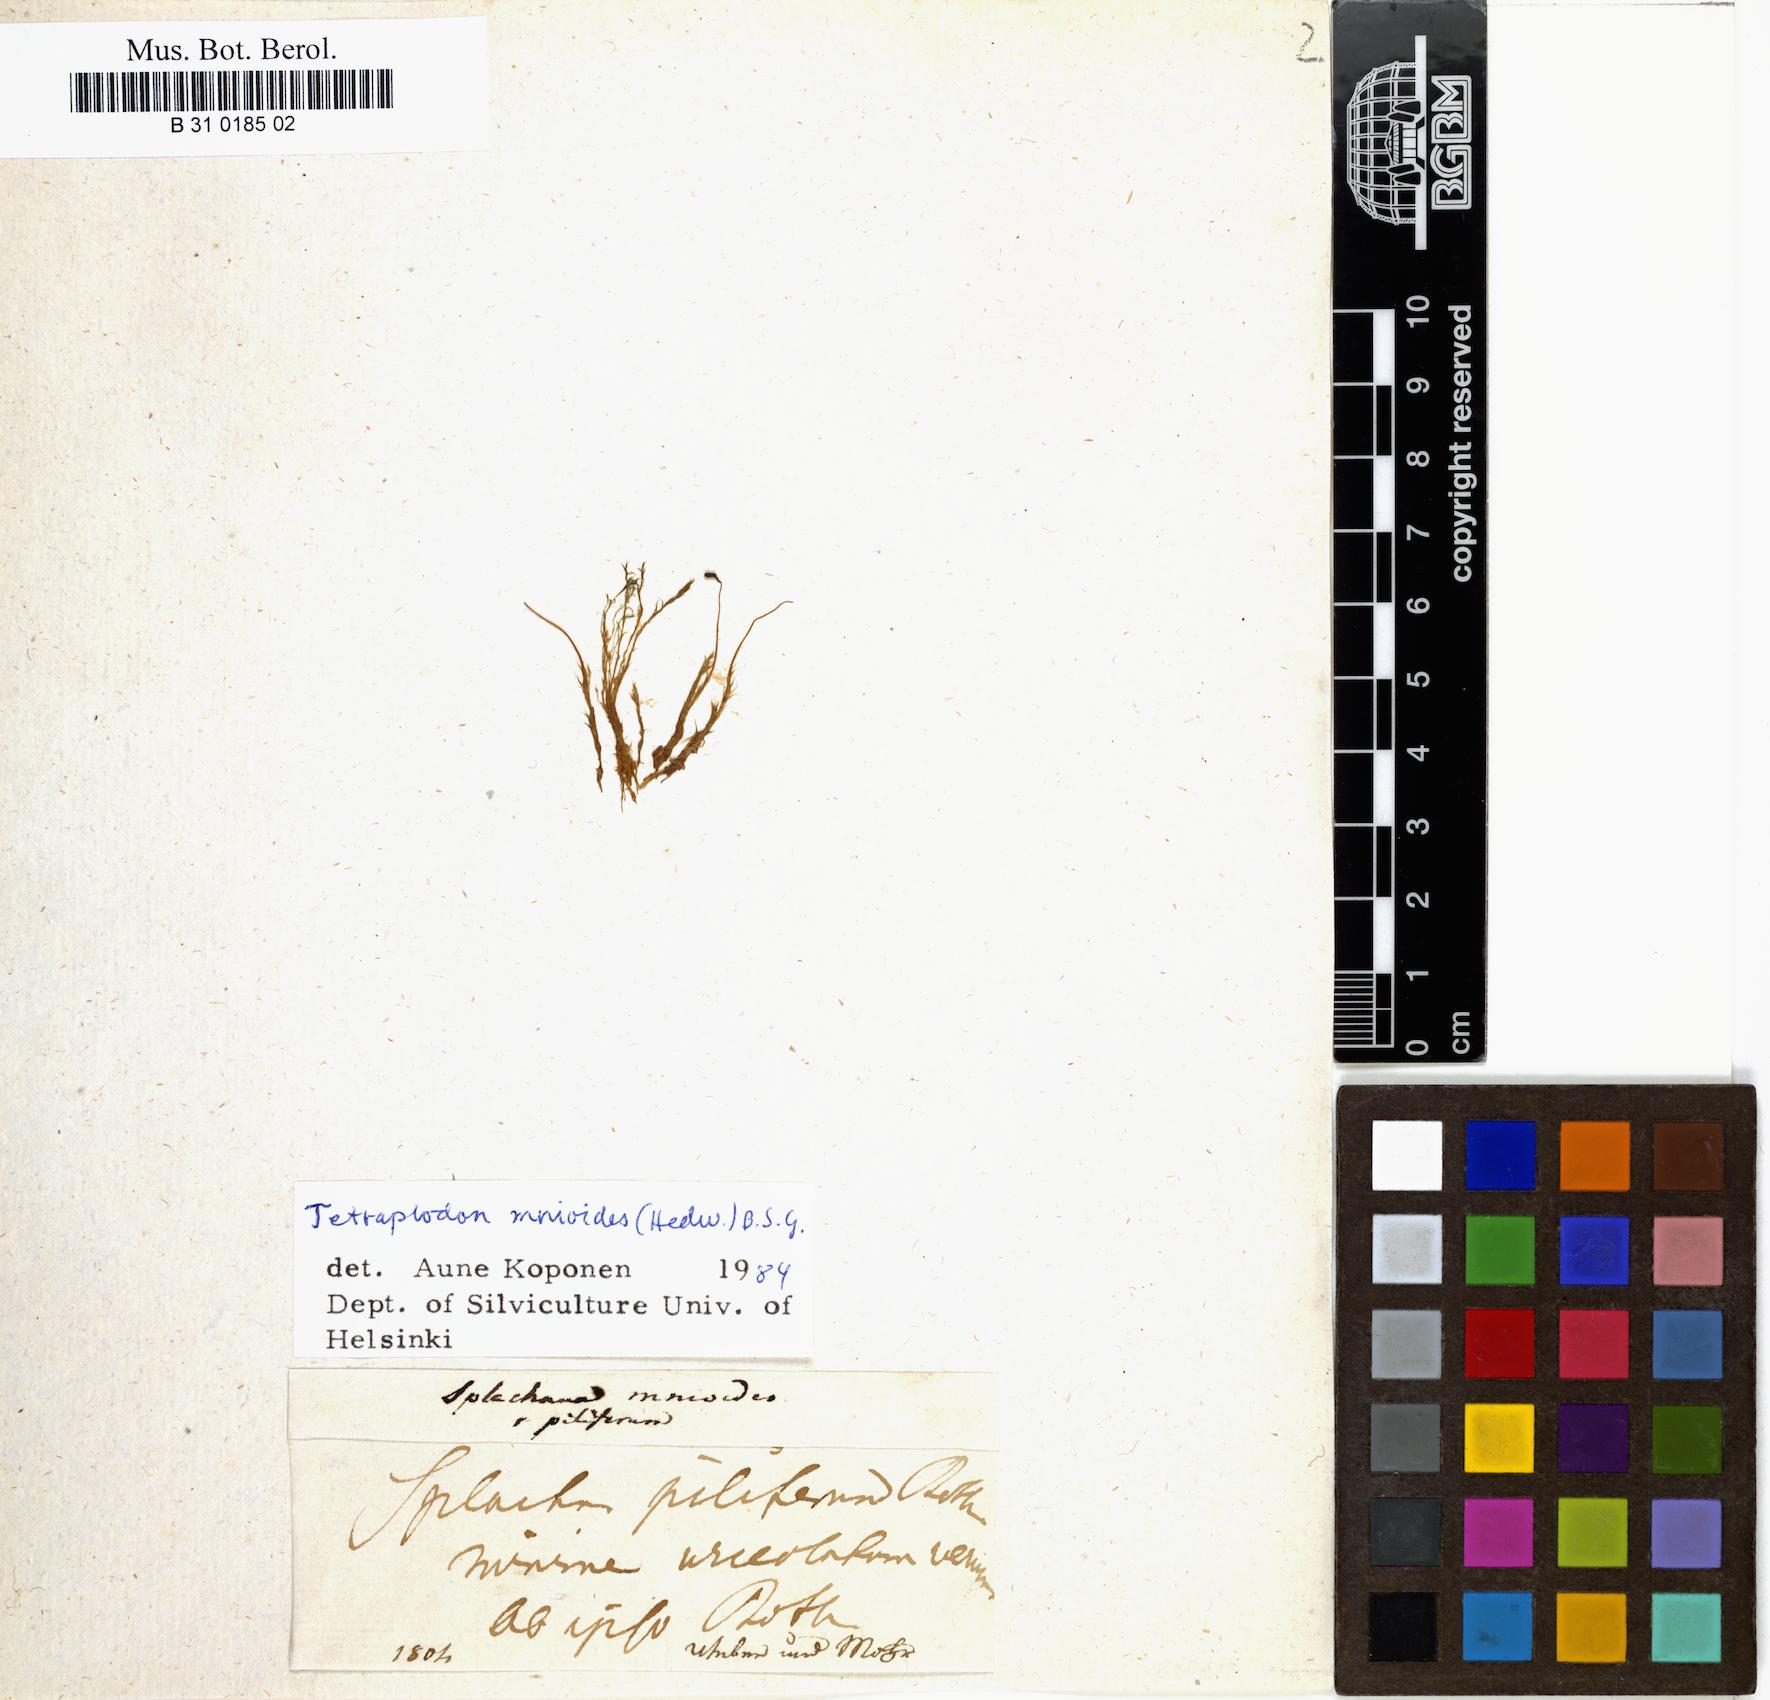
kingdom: Plantae
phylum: Bryophyta
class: Bryopsida
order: Splachnales
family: Splachnaceae
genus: Tetraplodon
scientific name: Tetraplodon mnioides
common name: Entire-leaved nitrogen moss
